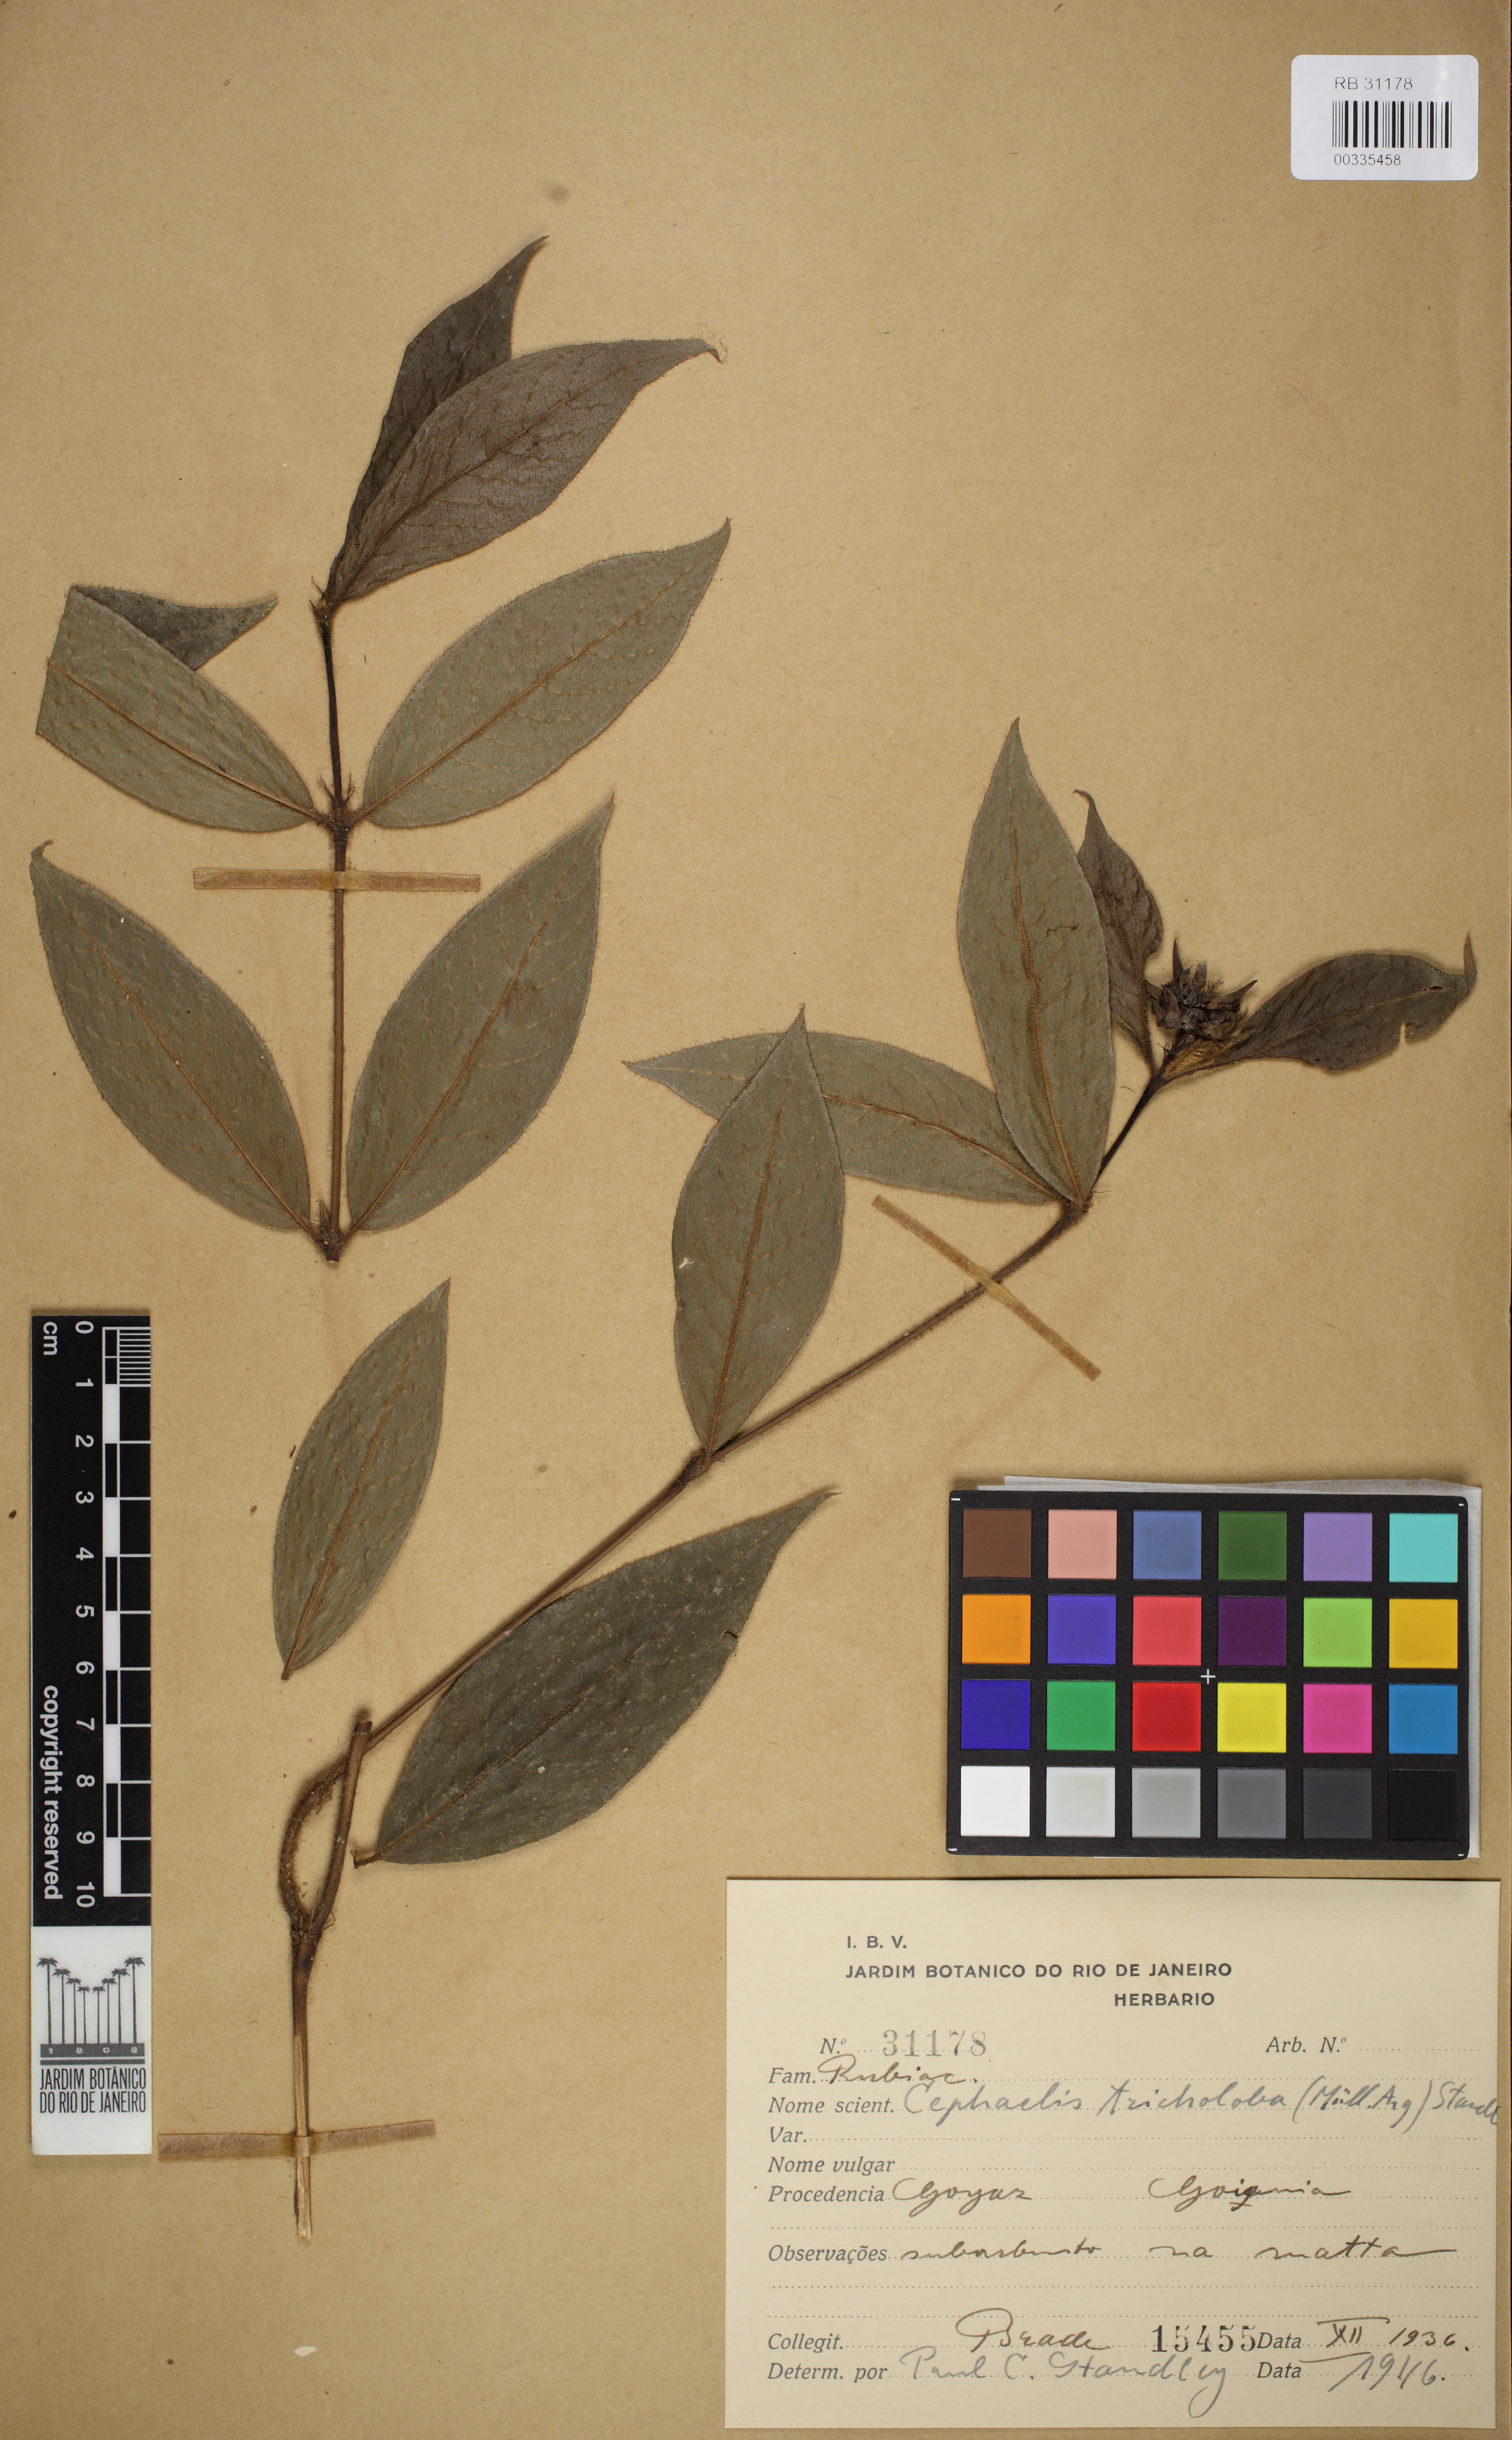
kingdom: Plantae
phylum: Tracheophyta
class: Magnoliopsida
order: Gentianales
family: Rubiaceae
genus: Palicourea
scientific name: Palicourea iodotricha
